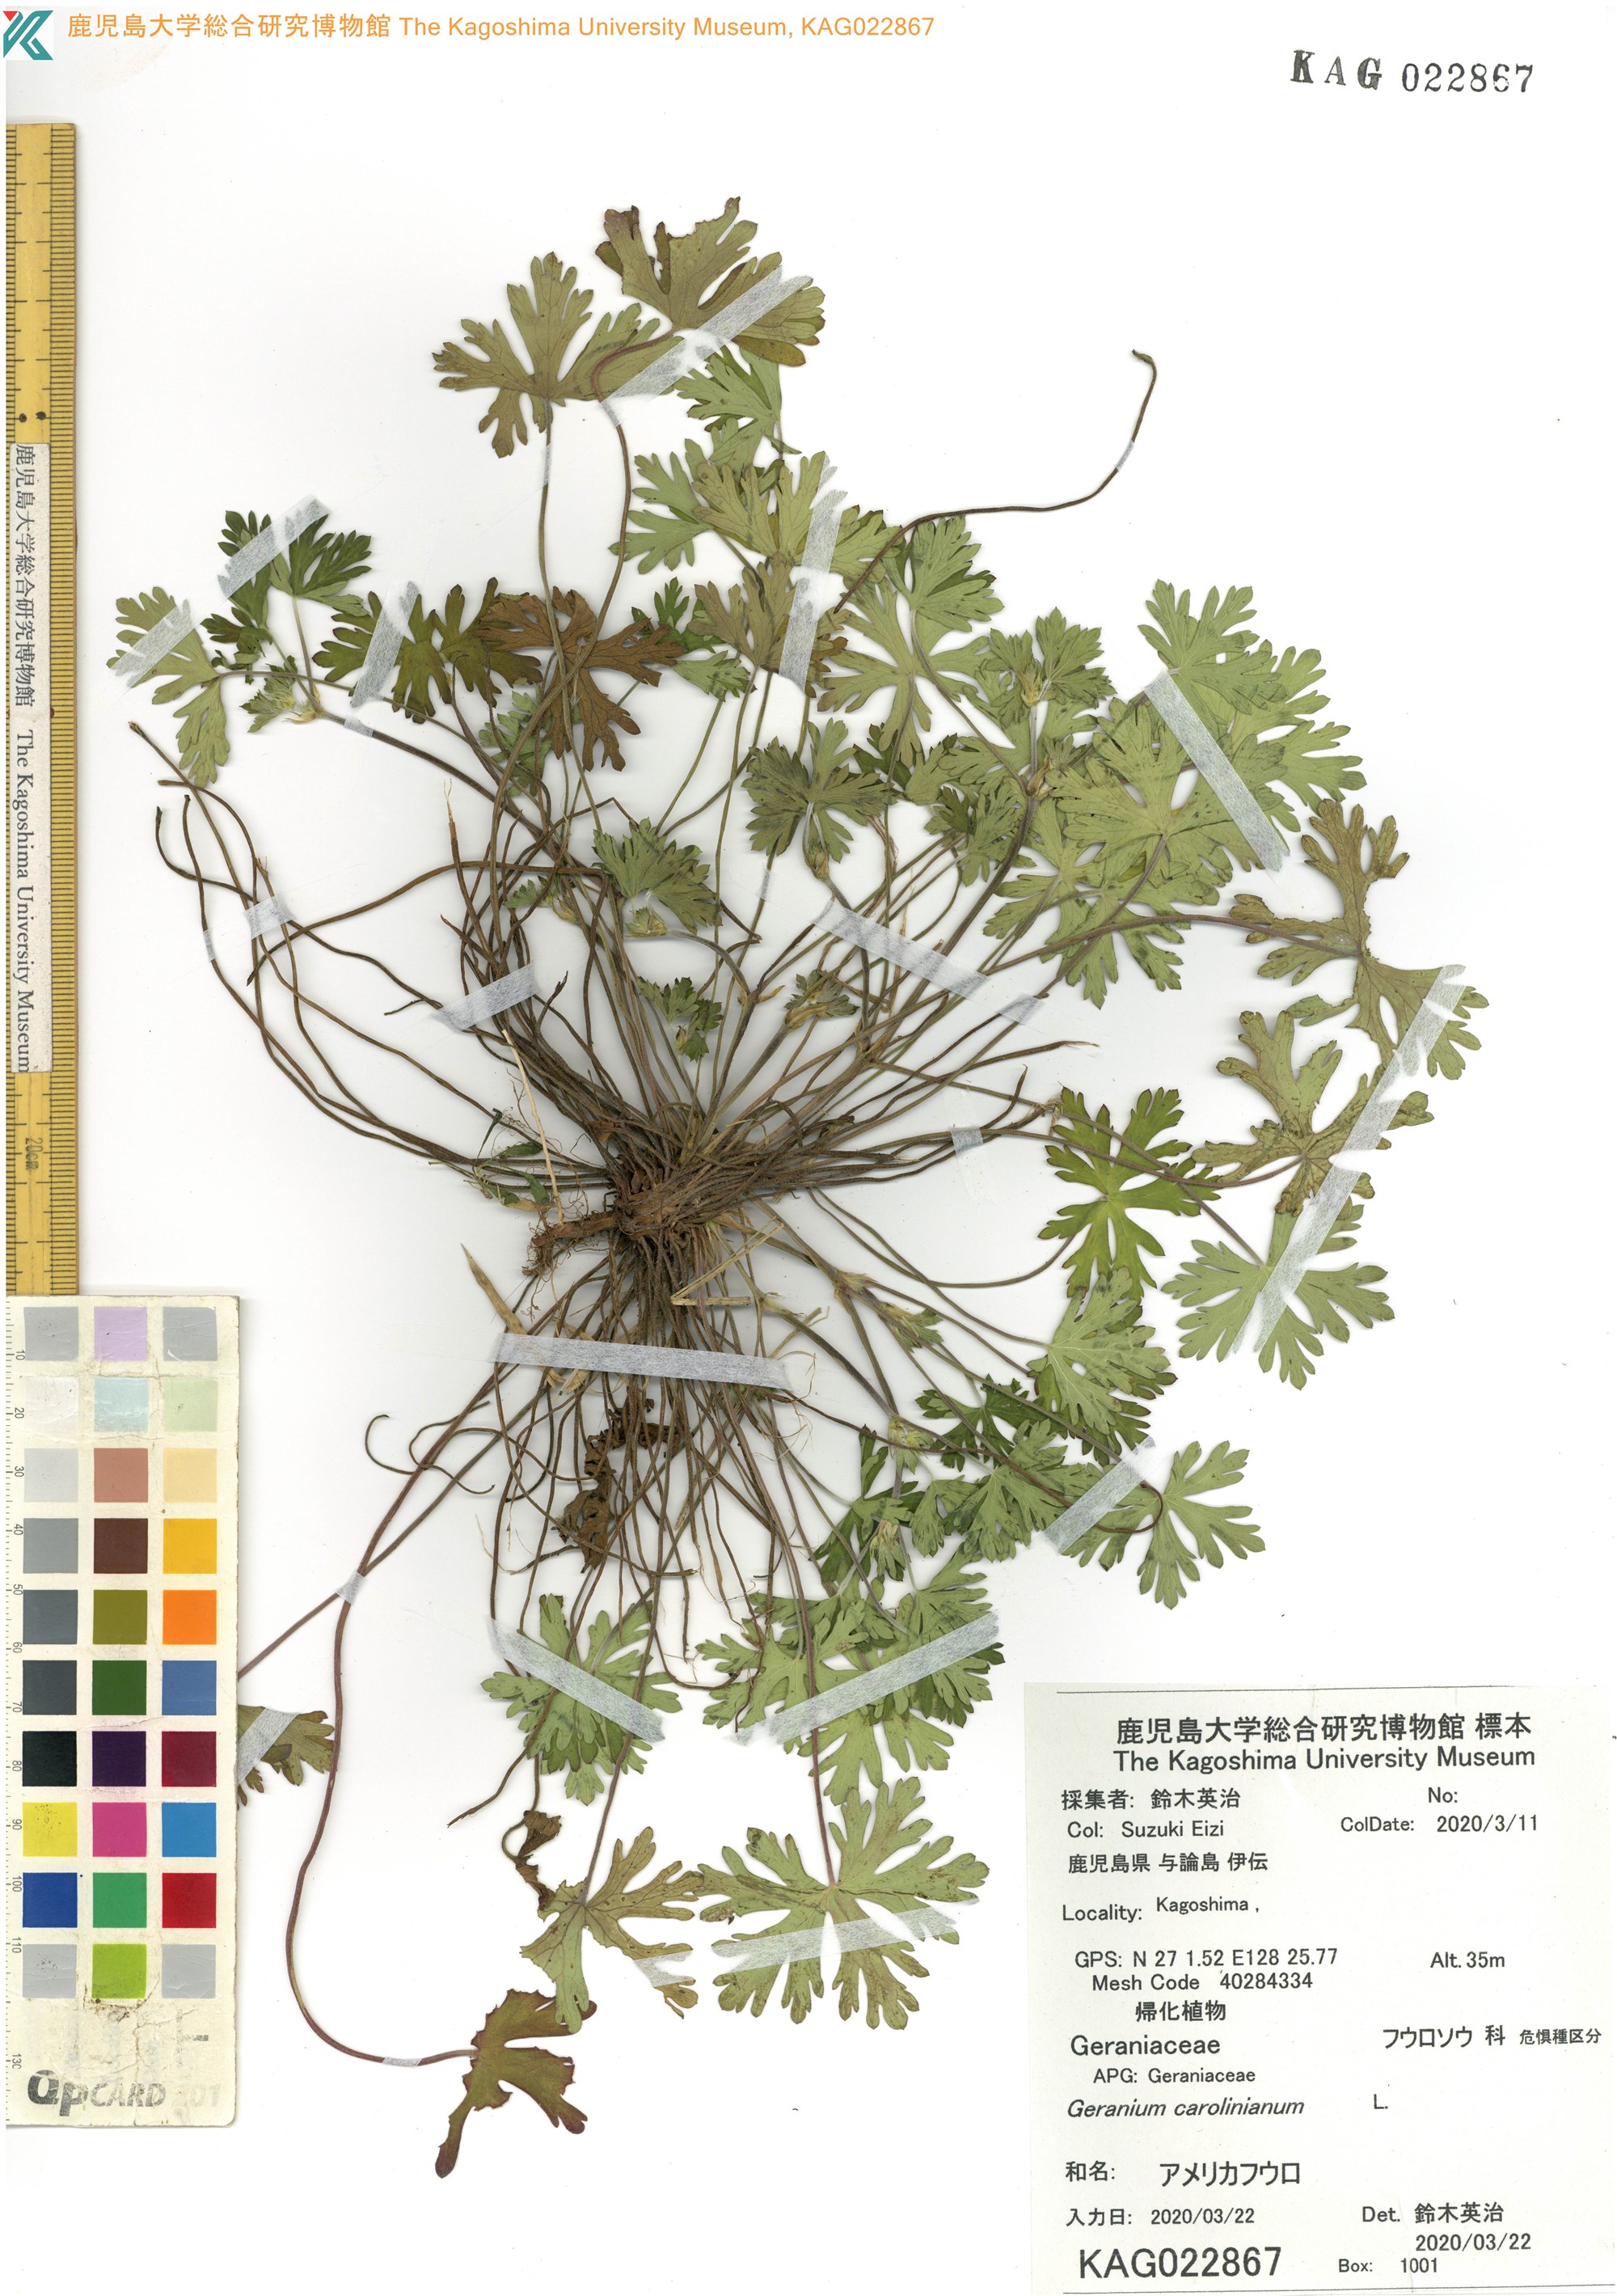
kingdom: Plantae
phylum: Tracheophyta
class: Magnoliopsida
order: Geraniales
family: Geraniaceae
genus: Geranium
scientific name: Geranium carolinianum
